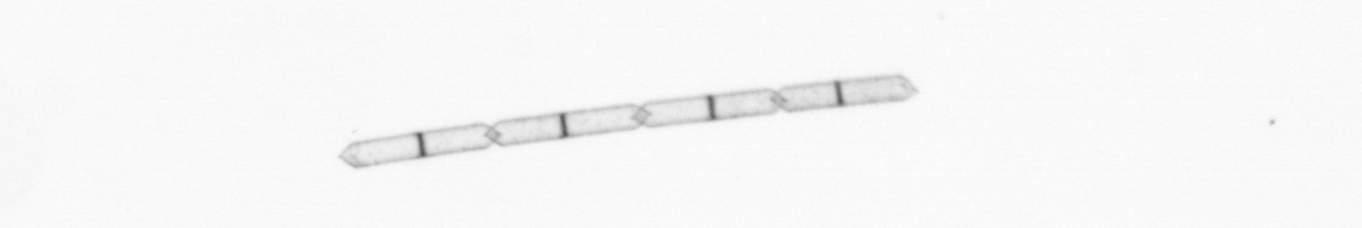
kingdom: Chromista
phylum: Ochrophyta
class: Bacillariophyceae
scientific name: Bacillariophyceae
